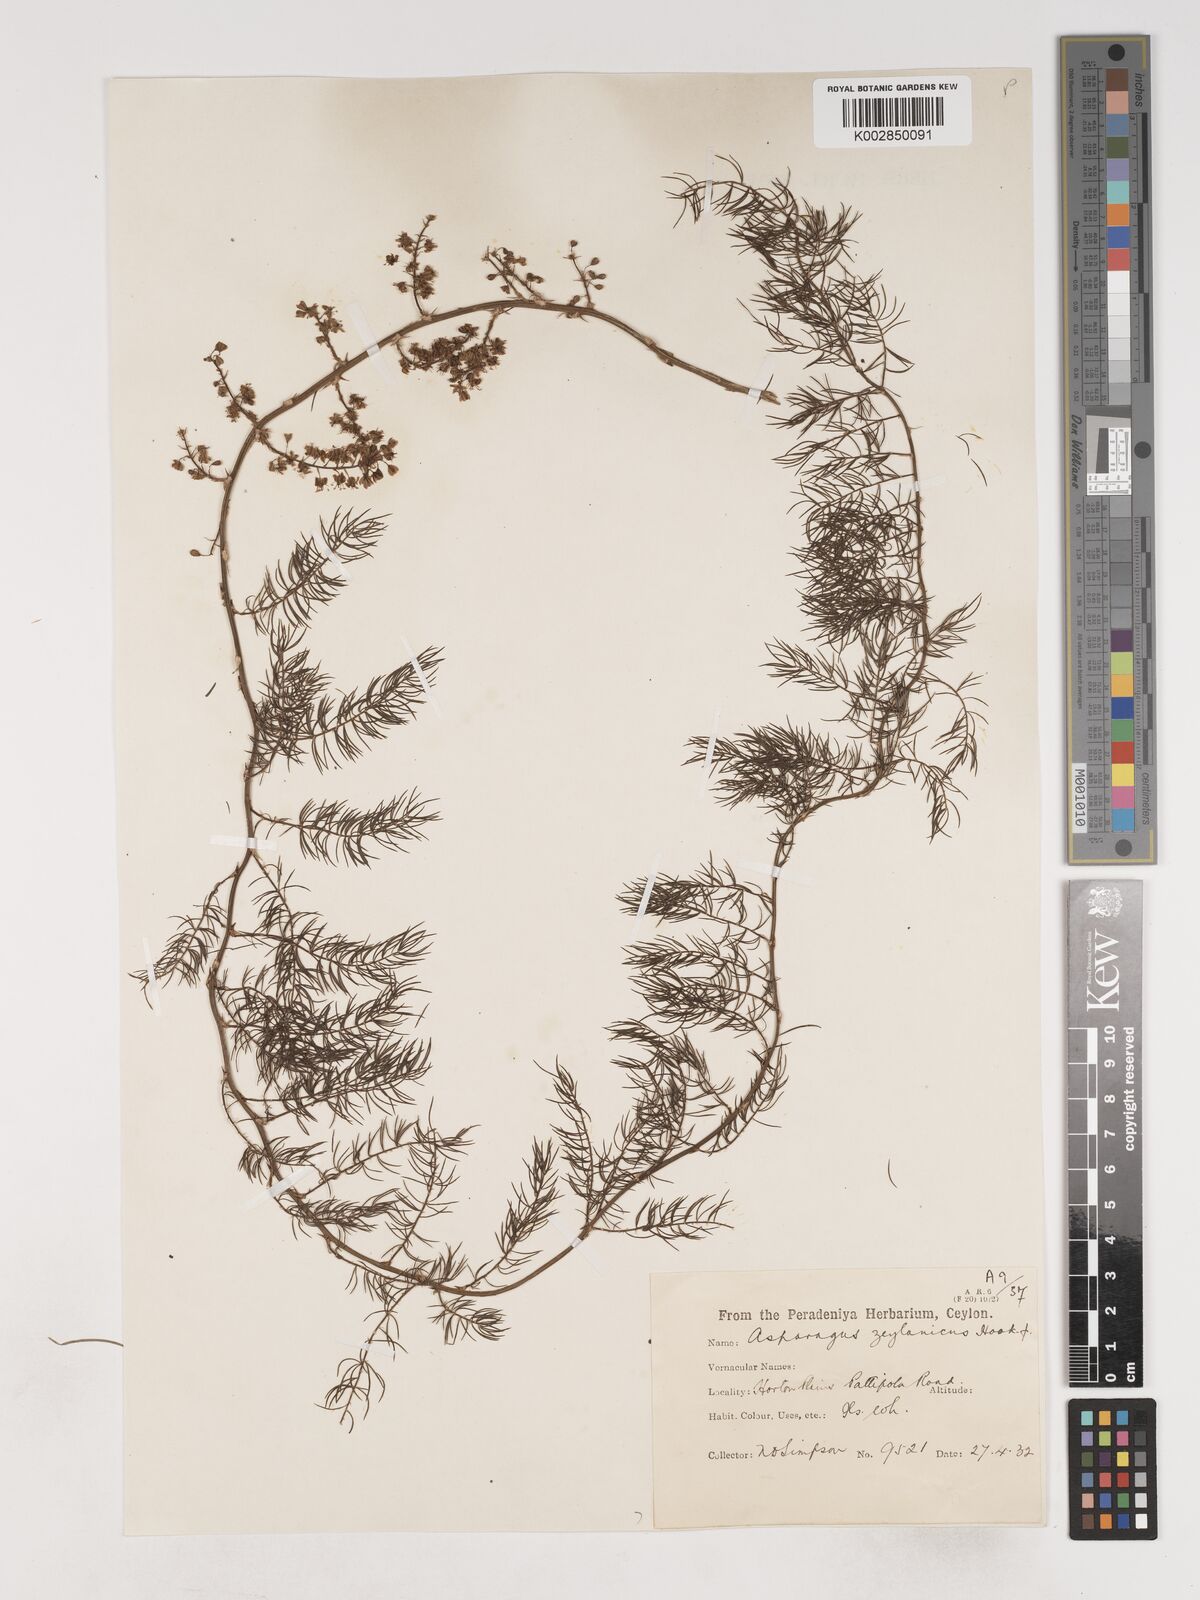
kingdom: Plantae
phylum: Tracheophyta
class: Liliopsida
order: Asparagales
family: Asparagaceae
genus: Asparagus
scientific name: Asparagus racemosus
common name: Asparagus-fern
